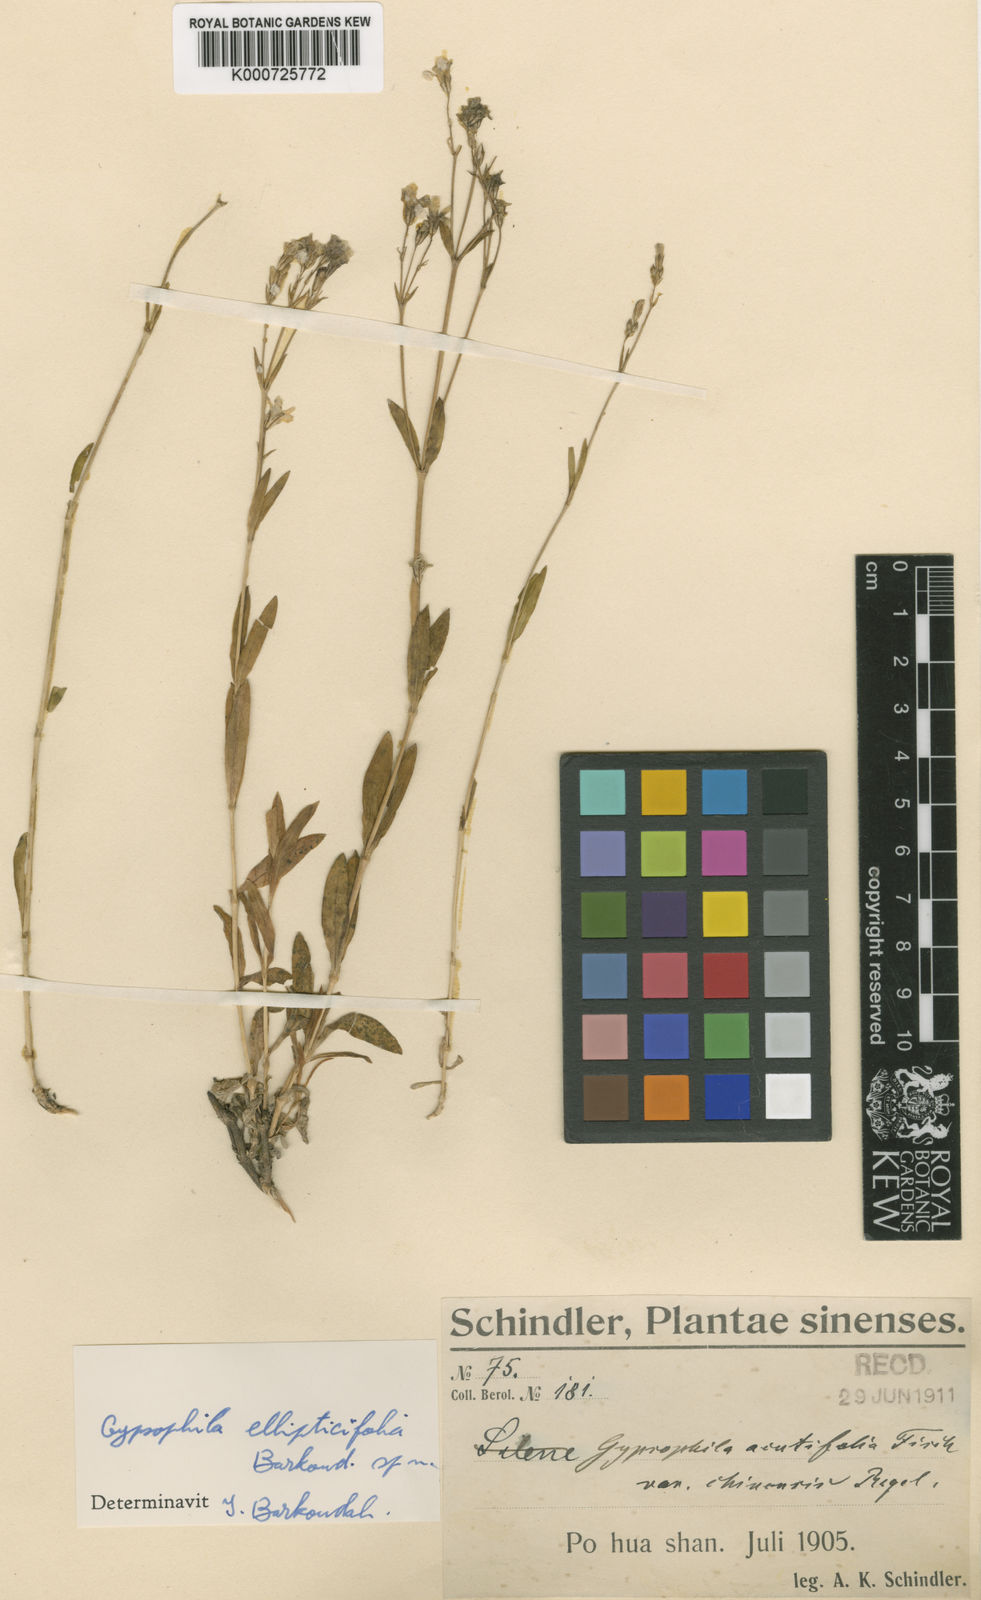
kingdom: Plantae
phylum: Tracheophyta
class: Magnoliopsida
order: Caryophyllales
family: Caryophyllaceae
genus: Gypsophila
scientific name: Gypsophila tschiliensis
